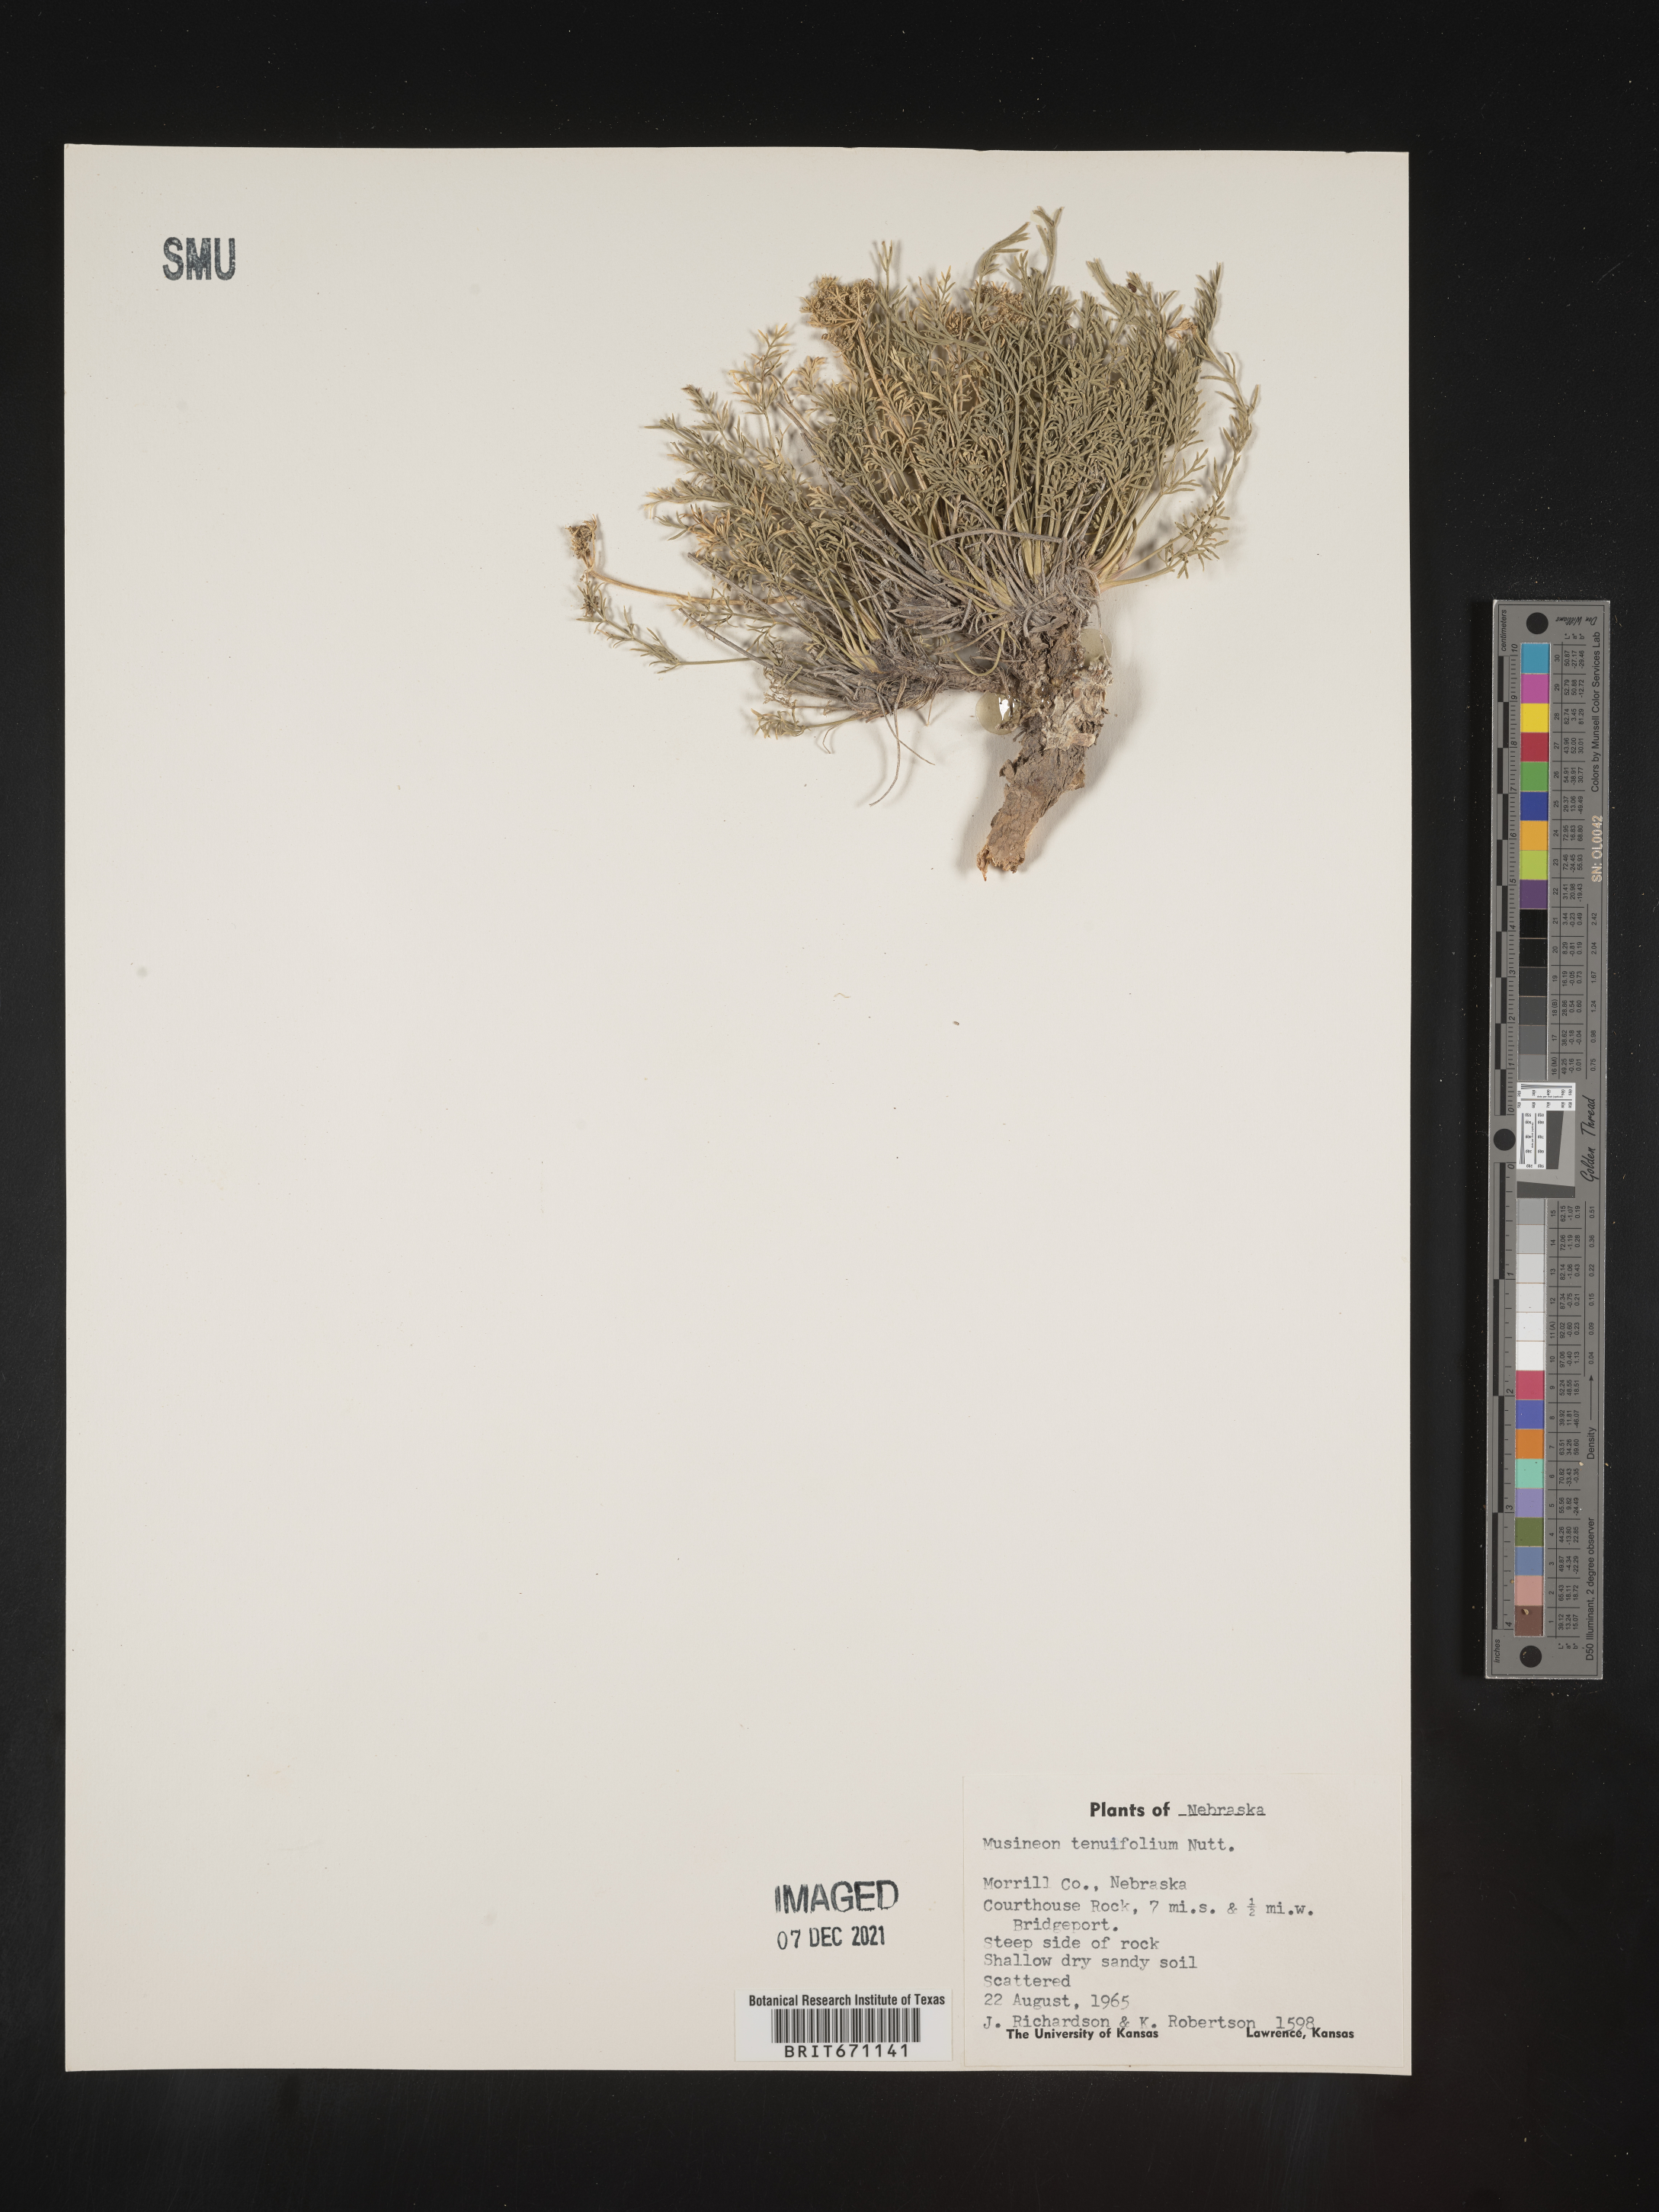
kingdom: Plantae
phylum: Tracheophyta
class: Magnoliopsida
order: Apiales
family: Apiaceae
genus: Musineon
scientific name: Musineon tenuifolium
